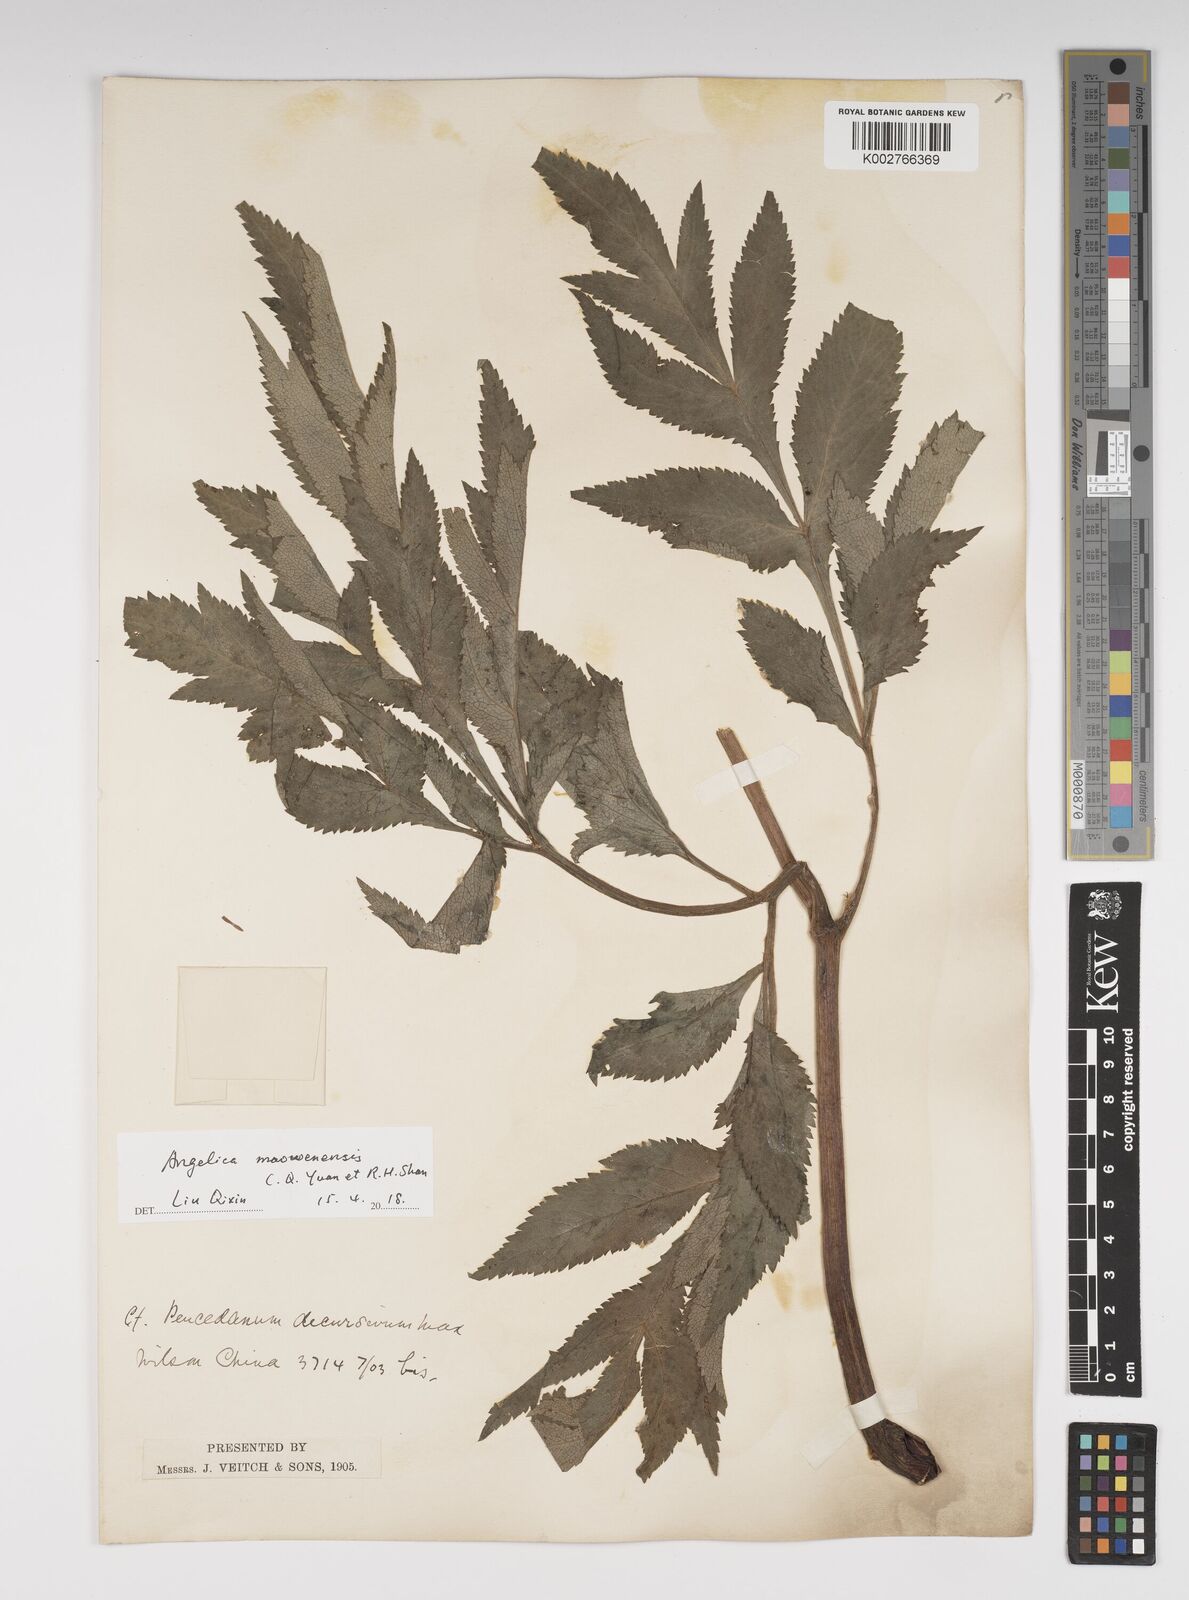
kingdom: Plantae
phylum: Tracheophyta
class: Magnoliopsida
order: Apiales
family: Apiaceae
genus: Angelica
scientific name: Angelica maowenensis
